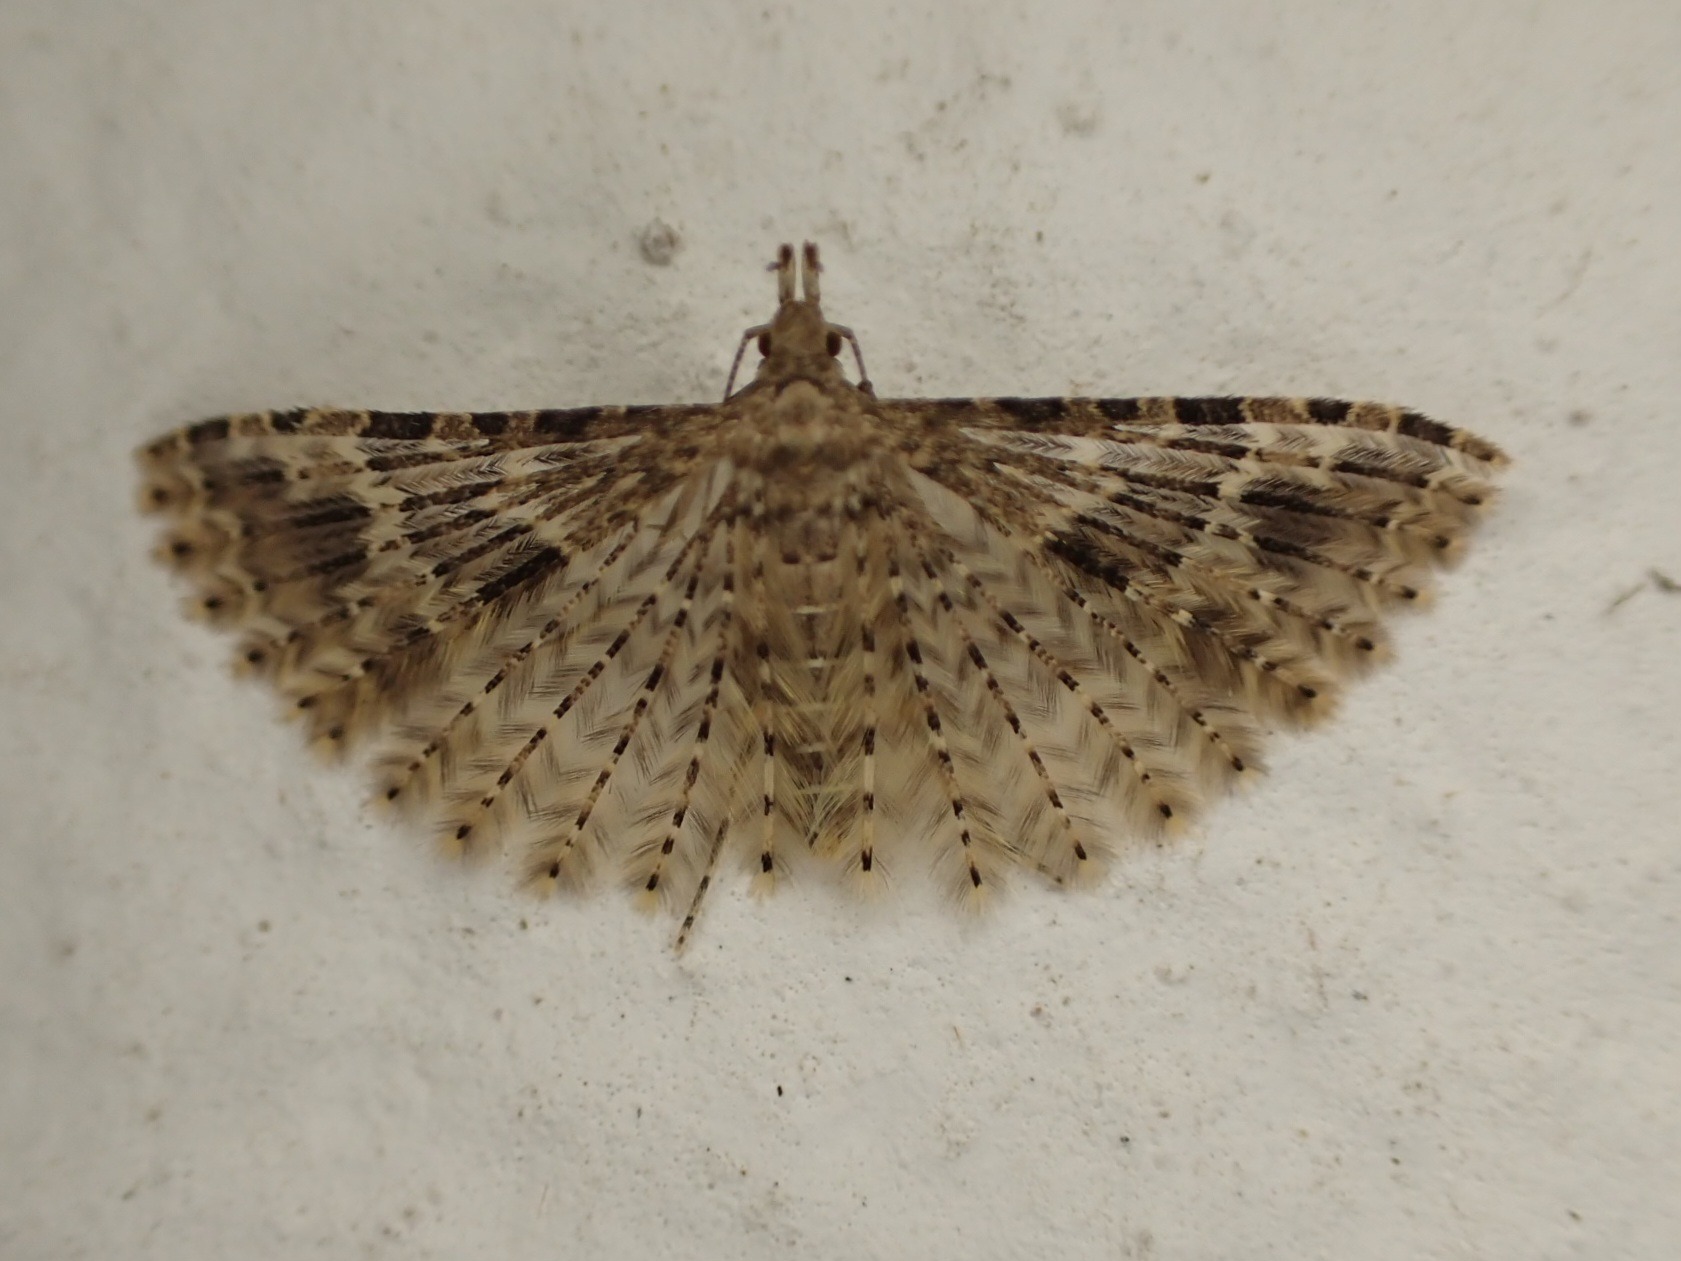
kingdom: Animalia
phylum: Arthropoda
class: Insecta
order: Lepidoptera
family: Alucitidae
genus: Alucita
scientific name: Alucita hexadactyla
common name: Kaprifoliefjermøl
